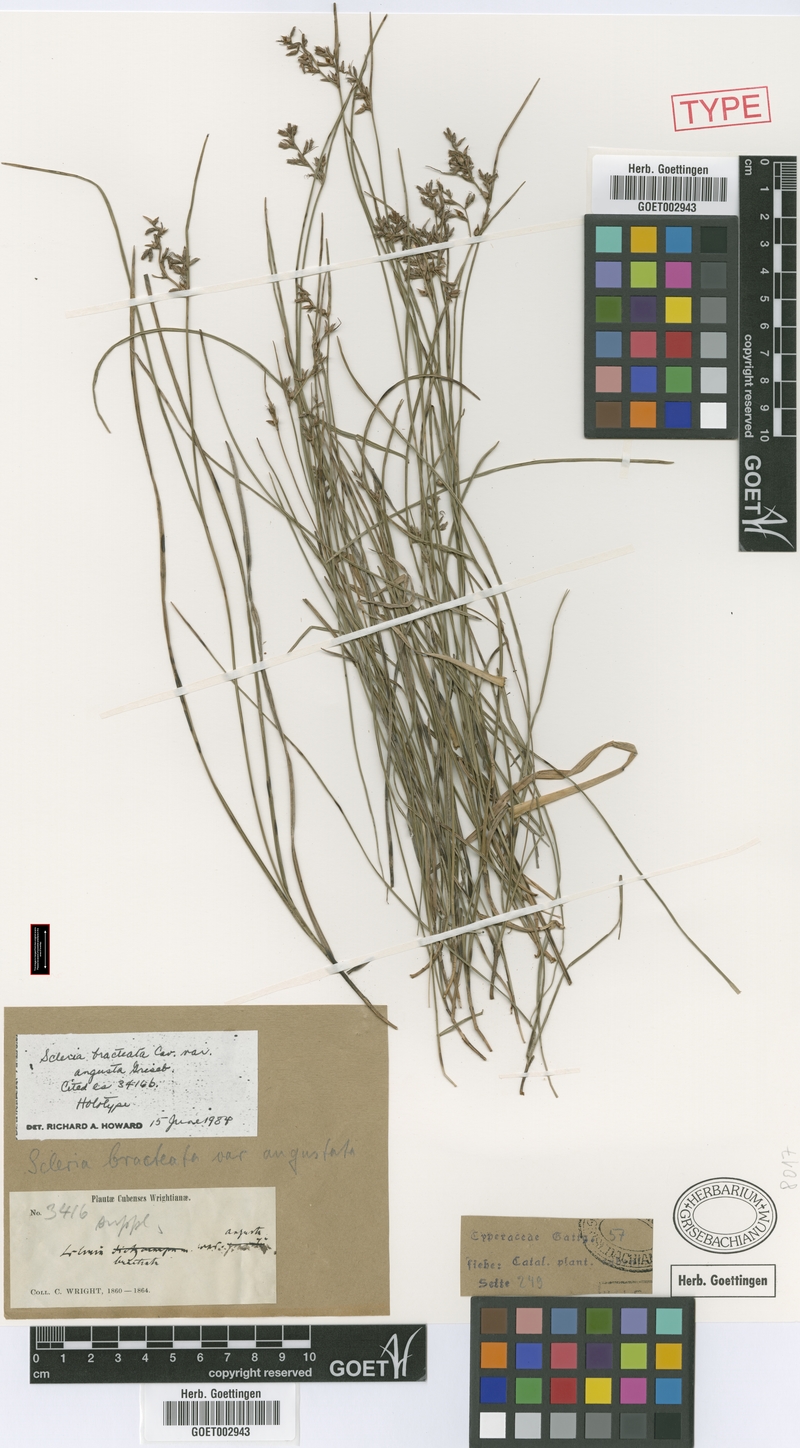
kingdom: Plantae
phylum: Tracheophyta
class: Liliopsida
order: Poales
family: Cyperaceae
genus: Rhynchospora
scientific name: Rhynchospora tenerrima
